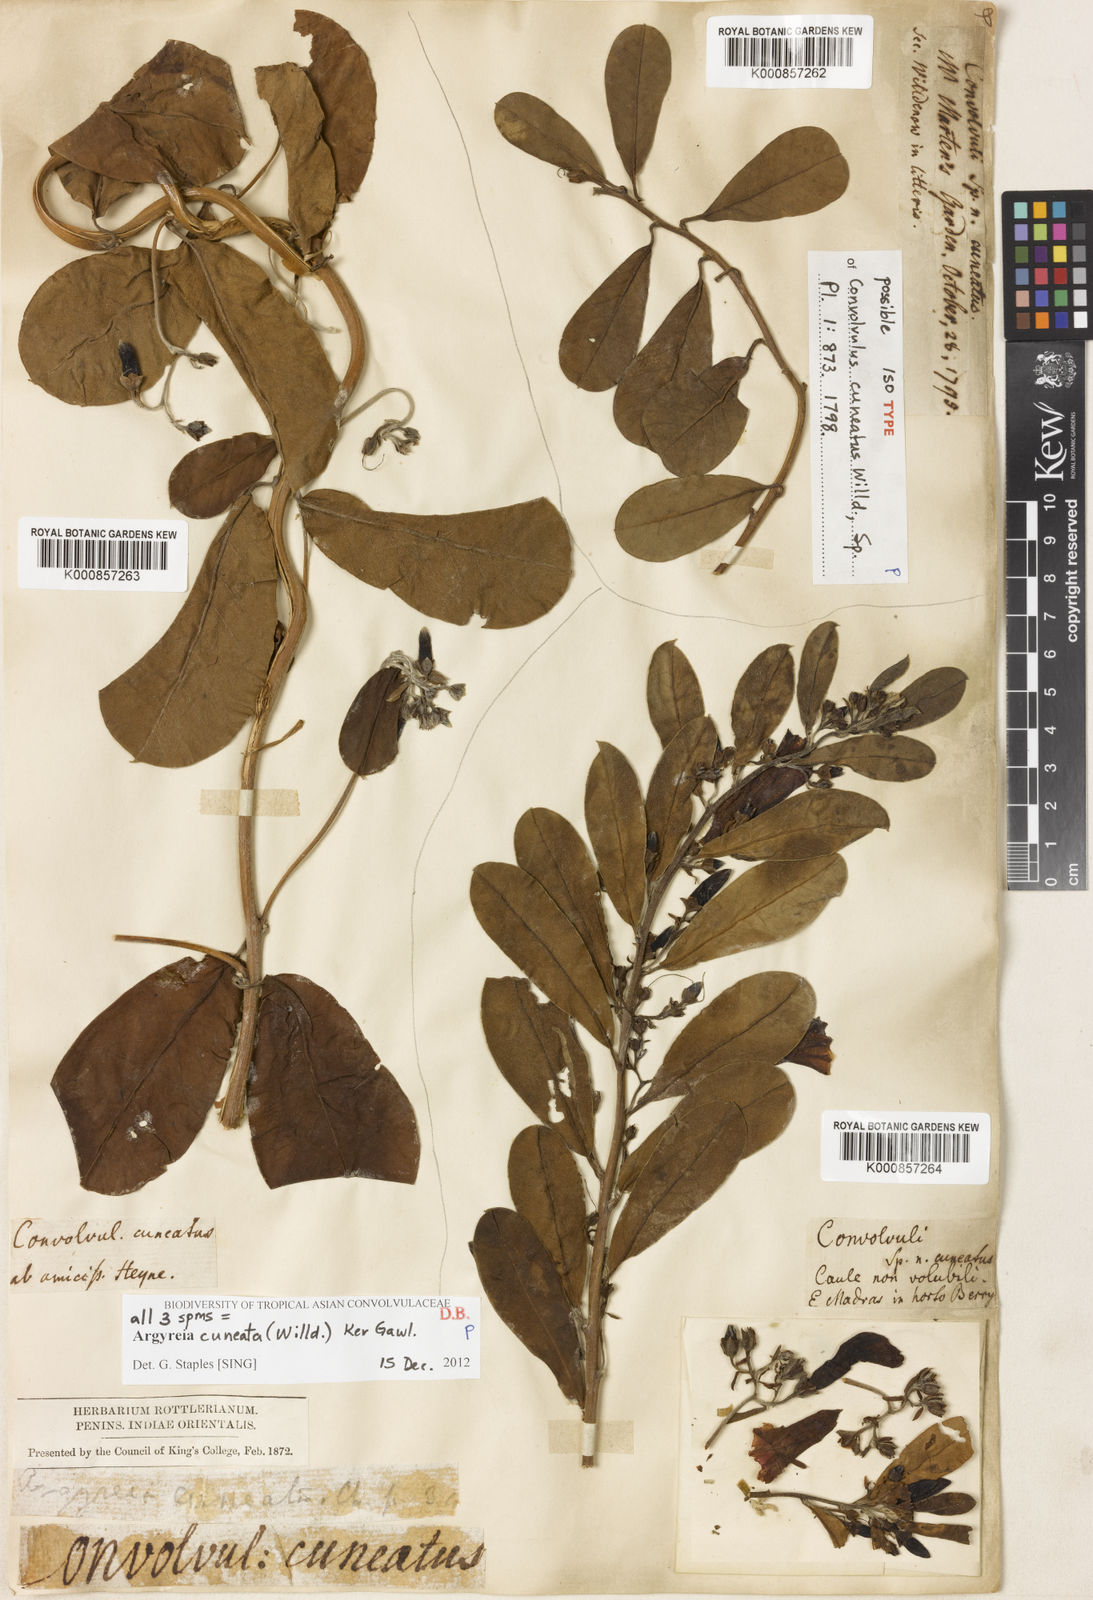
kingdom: Plantae
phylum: Tracheophyta
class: Magnoliopsida
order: Solanales
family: Convolvulaceae
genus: Argyreia
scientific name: Argyreia cuneata
